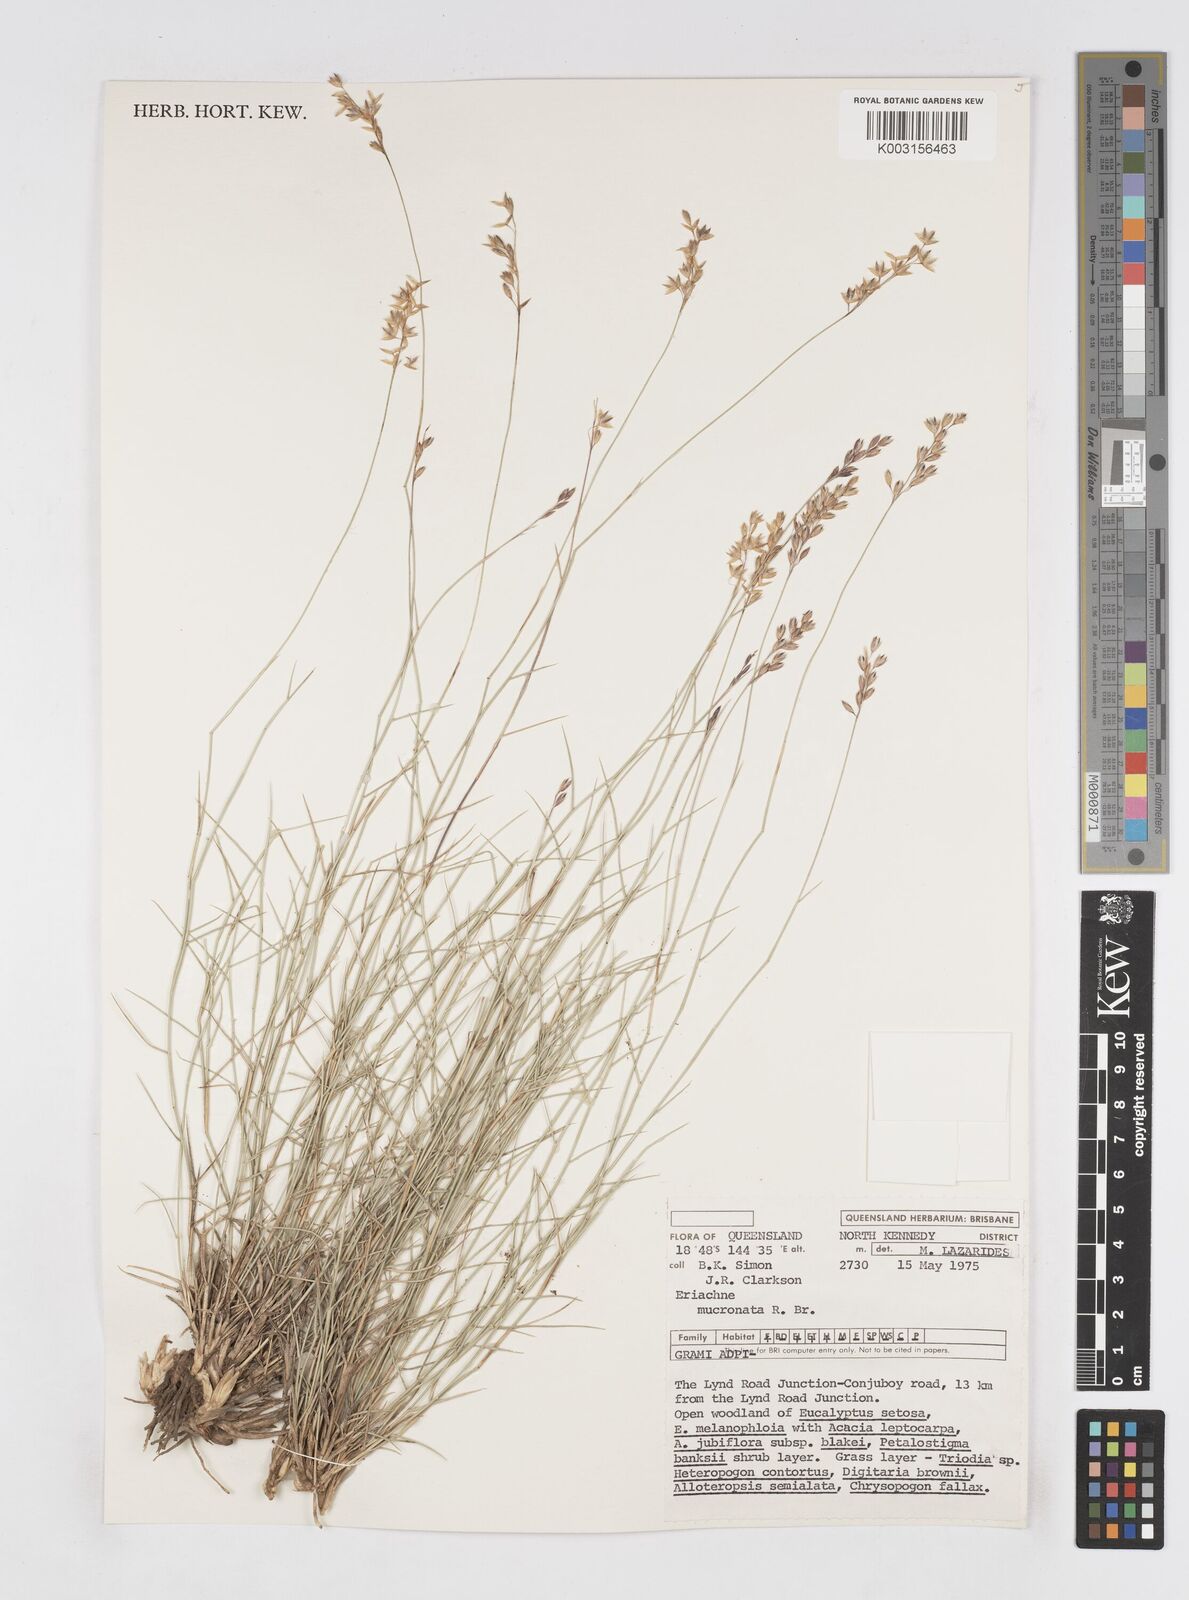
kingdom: Plantae
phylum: Tracheophyta
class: Liliopsida
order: Poales
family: Poaceae
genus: Eriachne
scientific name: Eriachne mucronata
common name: Mountain wanderrie grass
